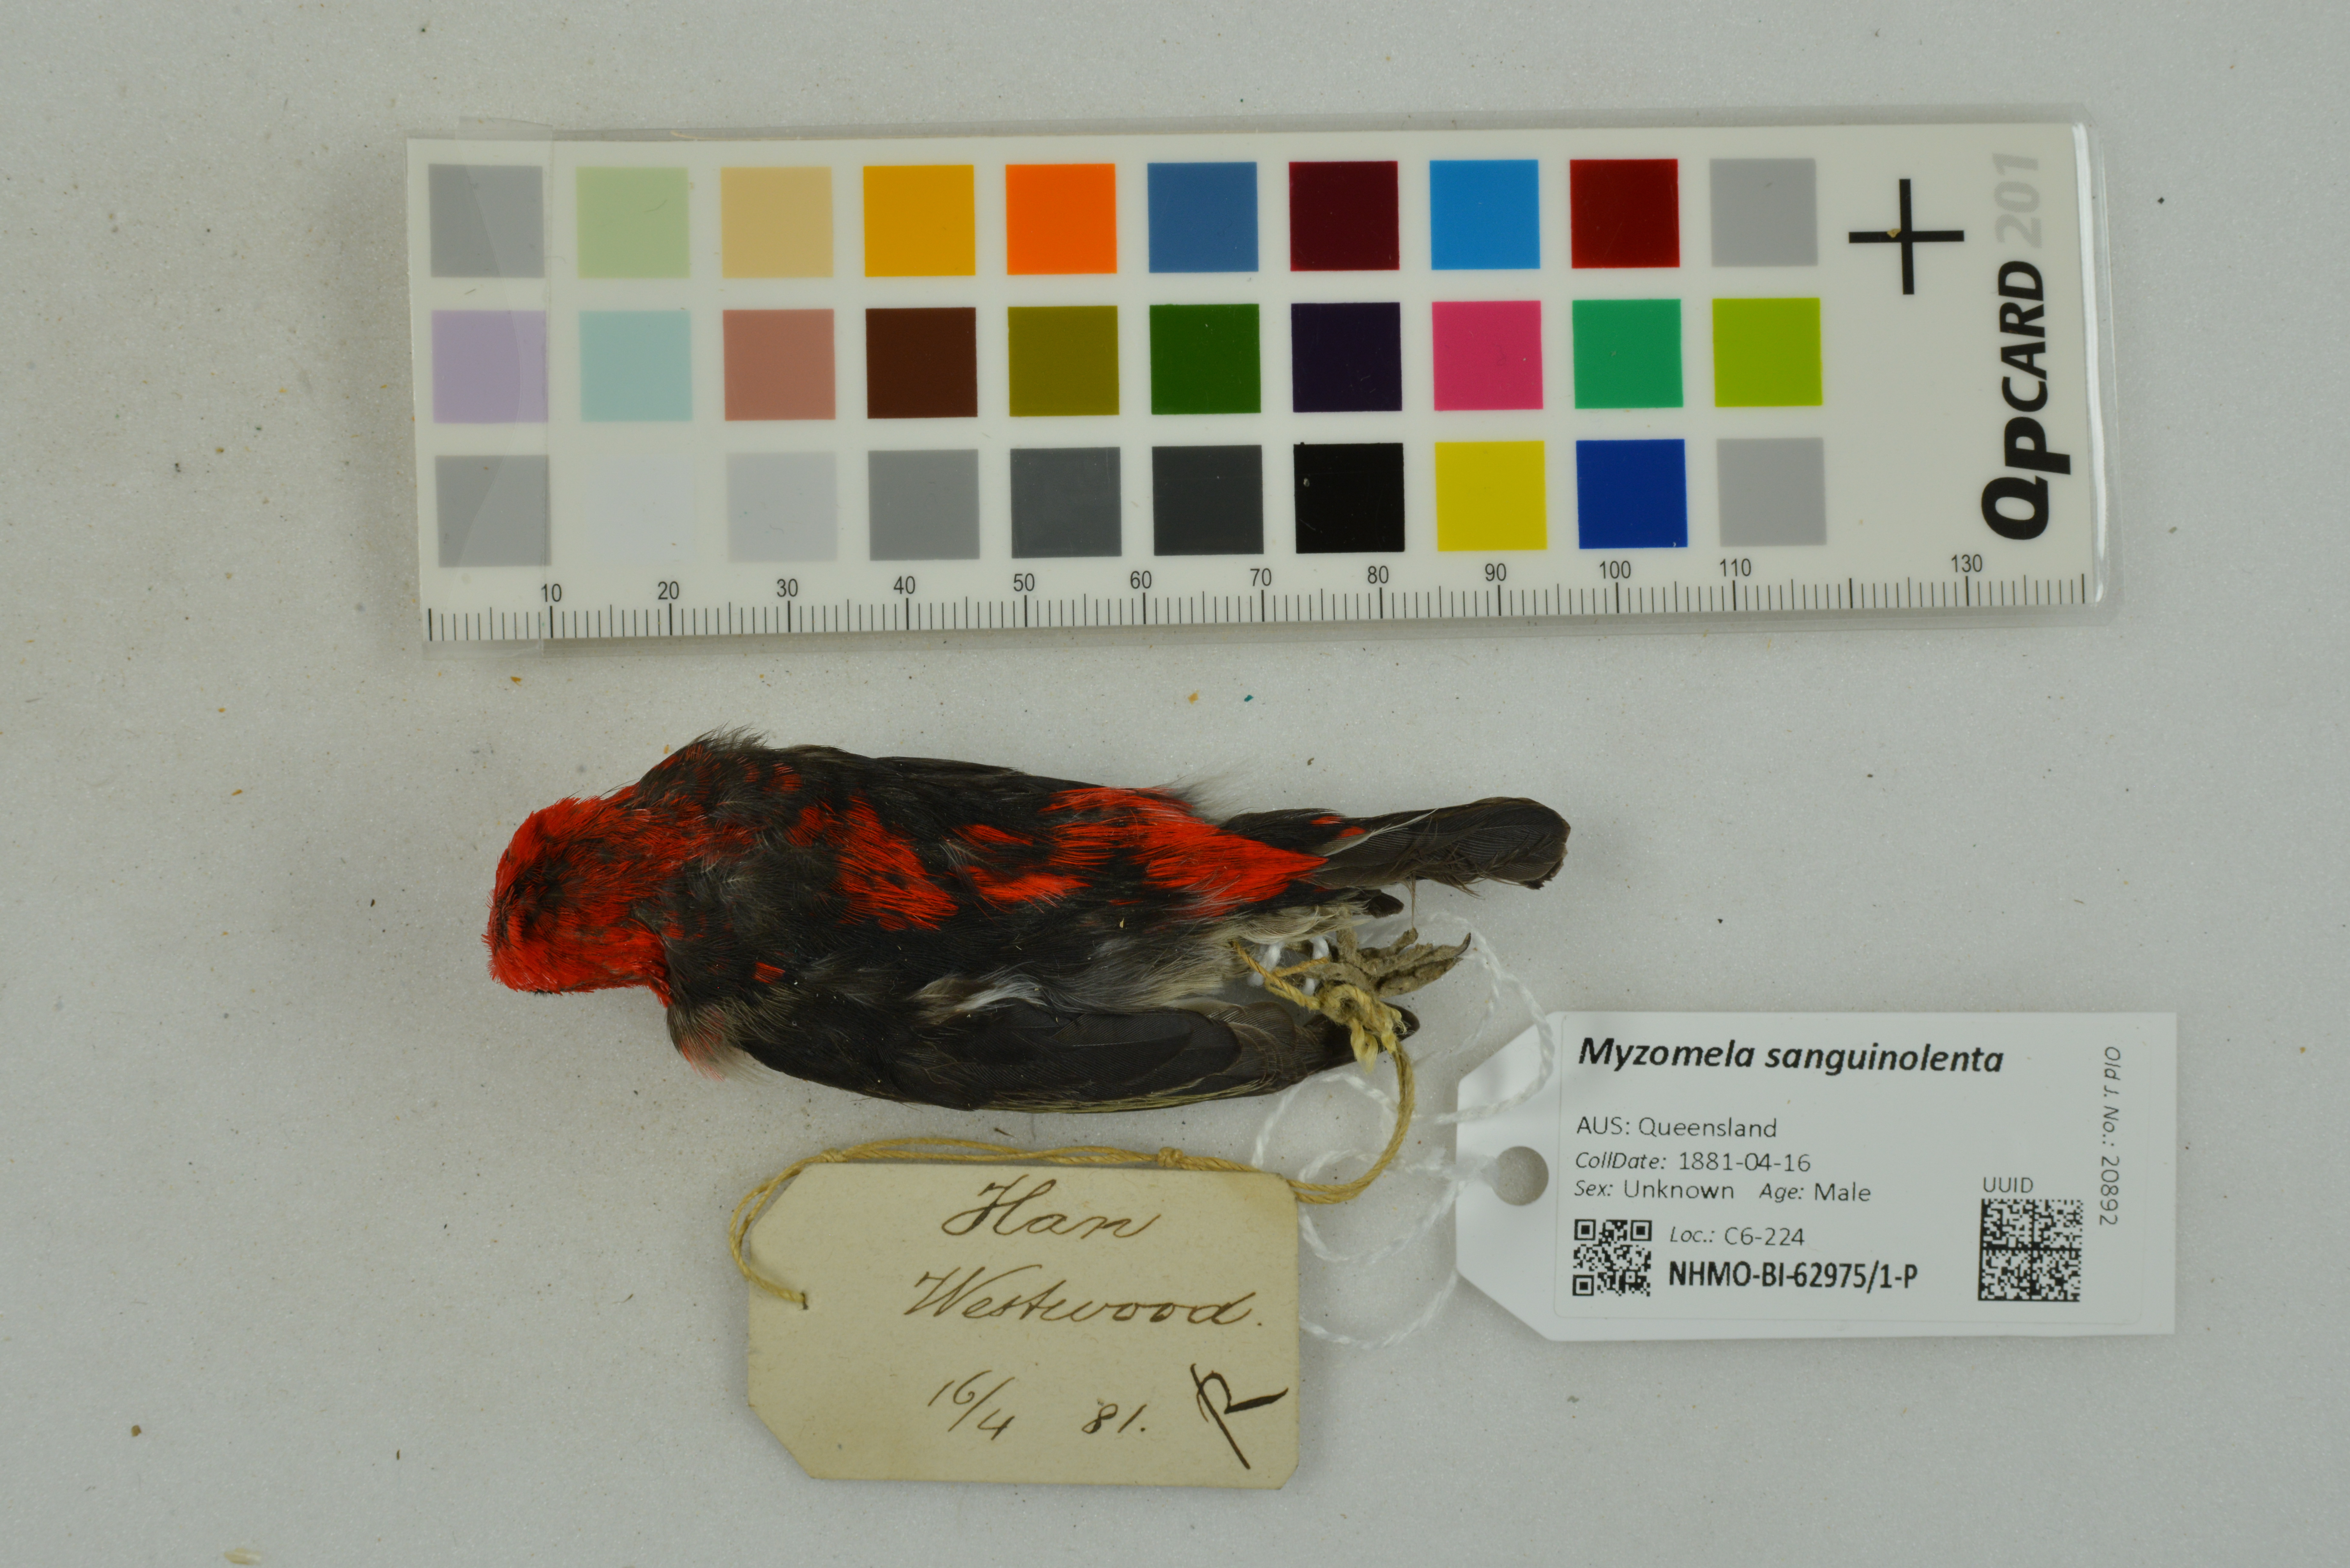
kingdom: Animalia
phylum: Chordata
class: Aves
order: Passeriformes
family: Meliphagidae
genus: Myzomela
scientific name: Myzomela sanguinolenta
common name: Scarlet myzomela
